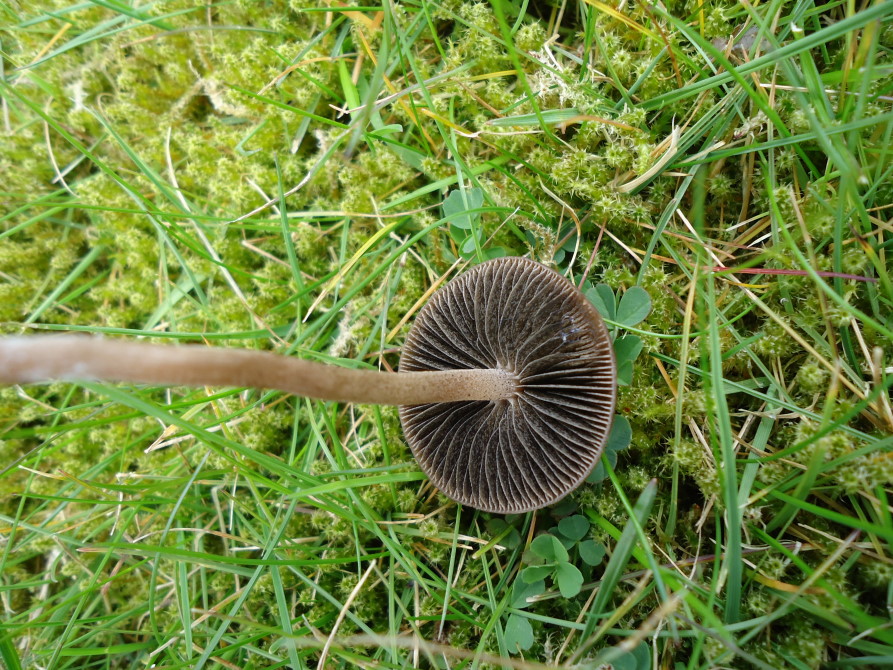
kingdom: Fungi
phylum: Basidiomycota
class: Agaricomycetes
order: Agaricales
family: Bolbitiaceae
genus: Panaeolus
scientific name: Panaeolus fimicola
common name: tidlig glanshat
